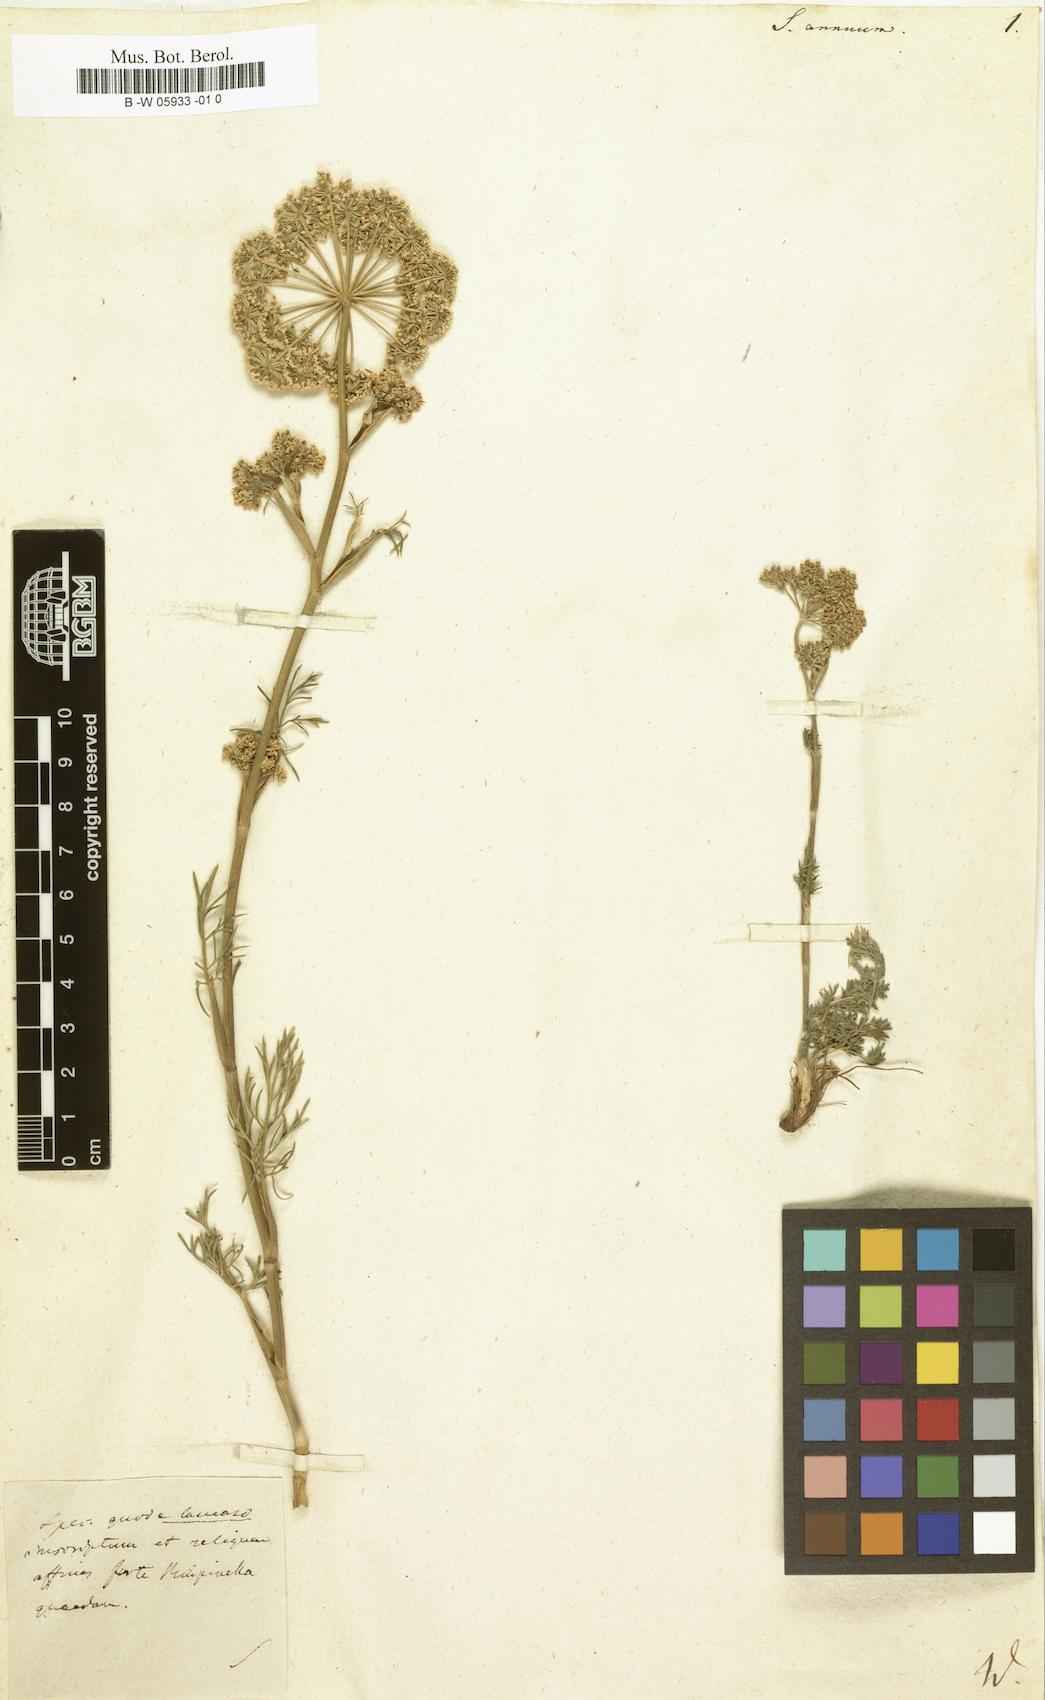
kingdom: Plantae
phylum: Tracheophyta
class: Magnoliopsida
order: Apiales
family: Apiaceae
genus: Seseli
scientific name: Seseli annuum
